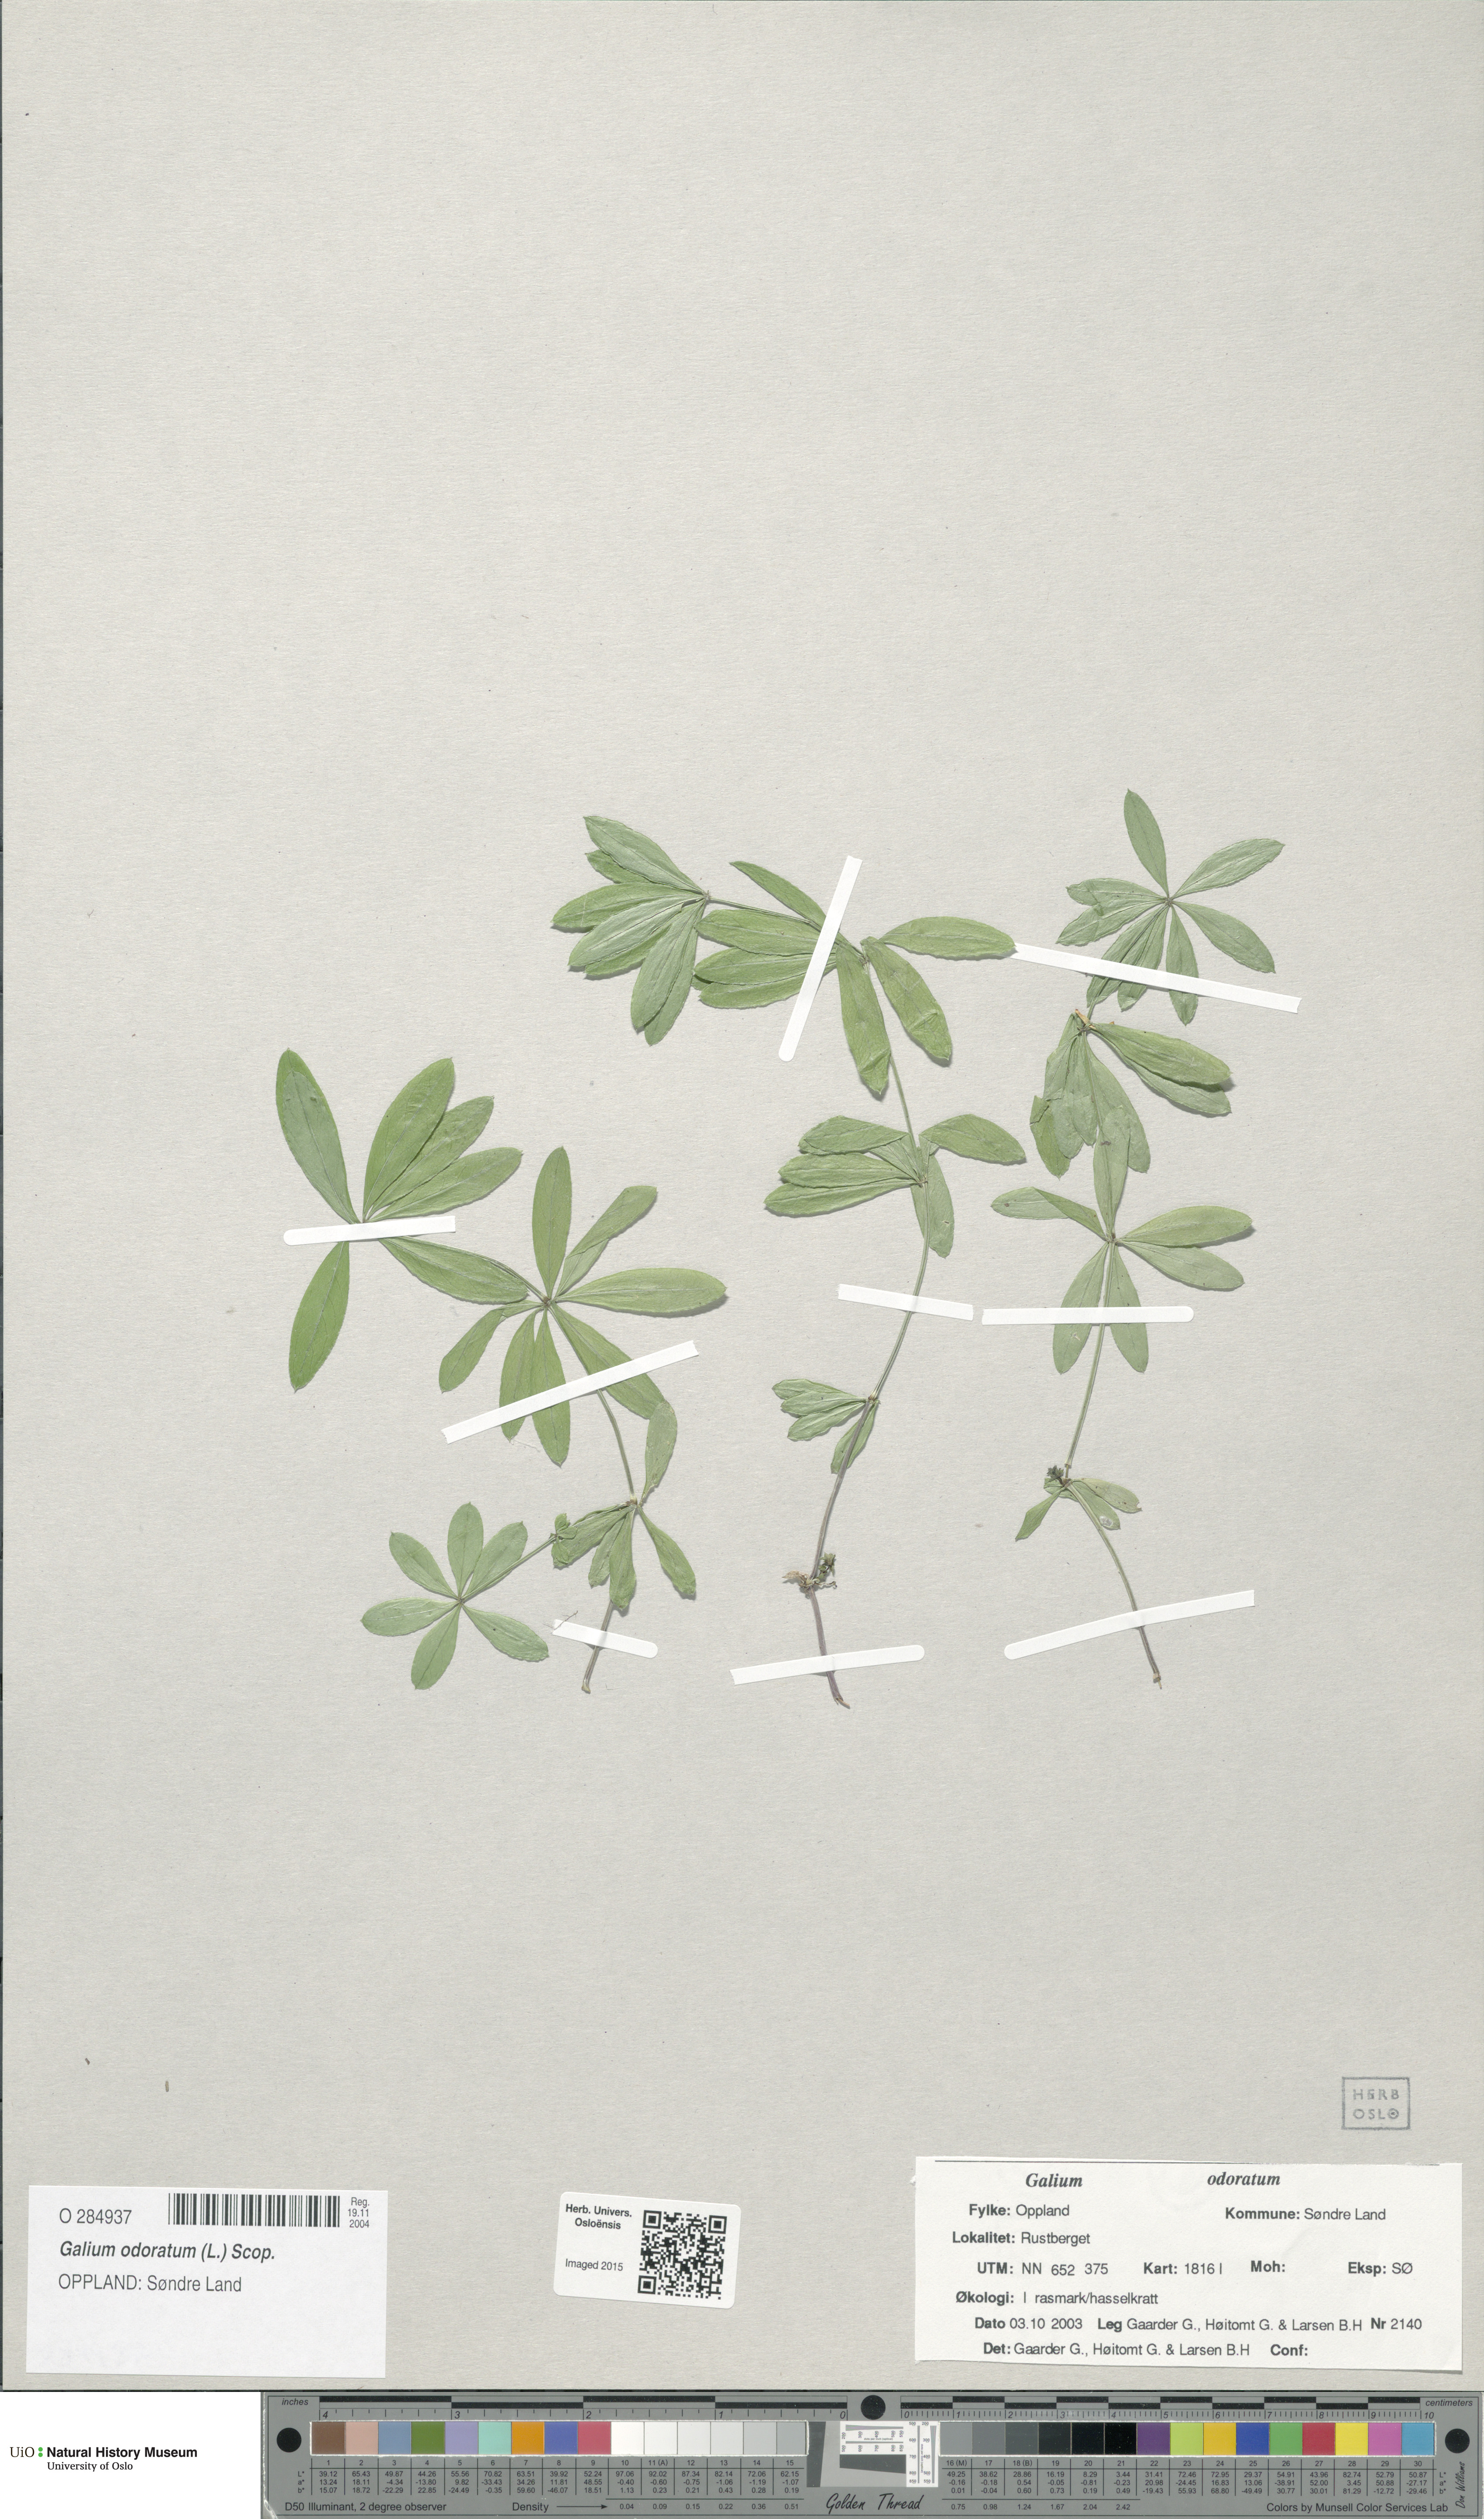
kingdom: Plantae
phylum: Tracheophyta
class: Magnoliopsida
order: Gentianales
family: Rubiaceae
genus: Galium
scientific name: Galium odoratum
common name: Sweet woodruff
